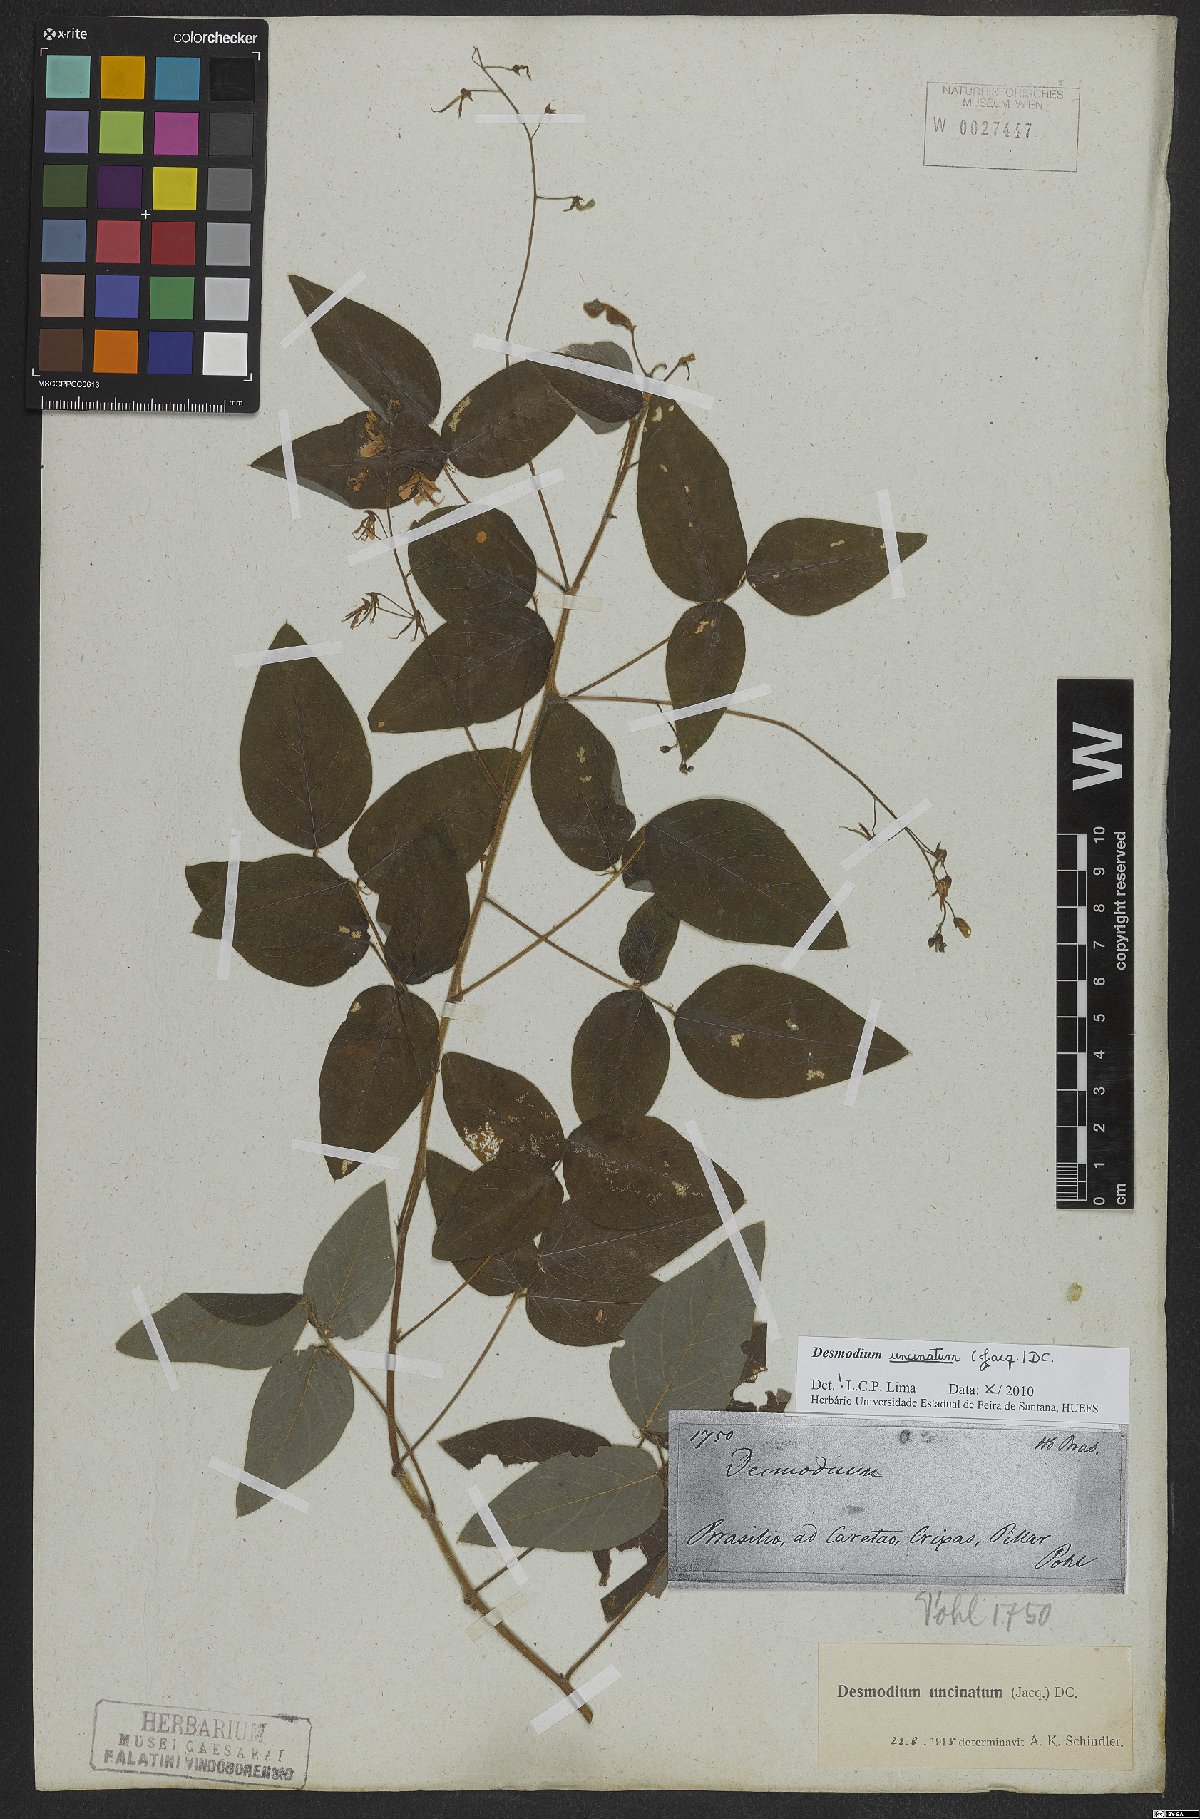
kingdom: Plantae
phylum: Tracheophyta
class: Magnoliopsida
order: Fabales
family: Fabaceae
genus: Desmodium
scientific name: Desmodium uncinatum
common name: Silverleaf desmodium
